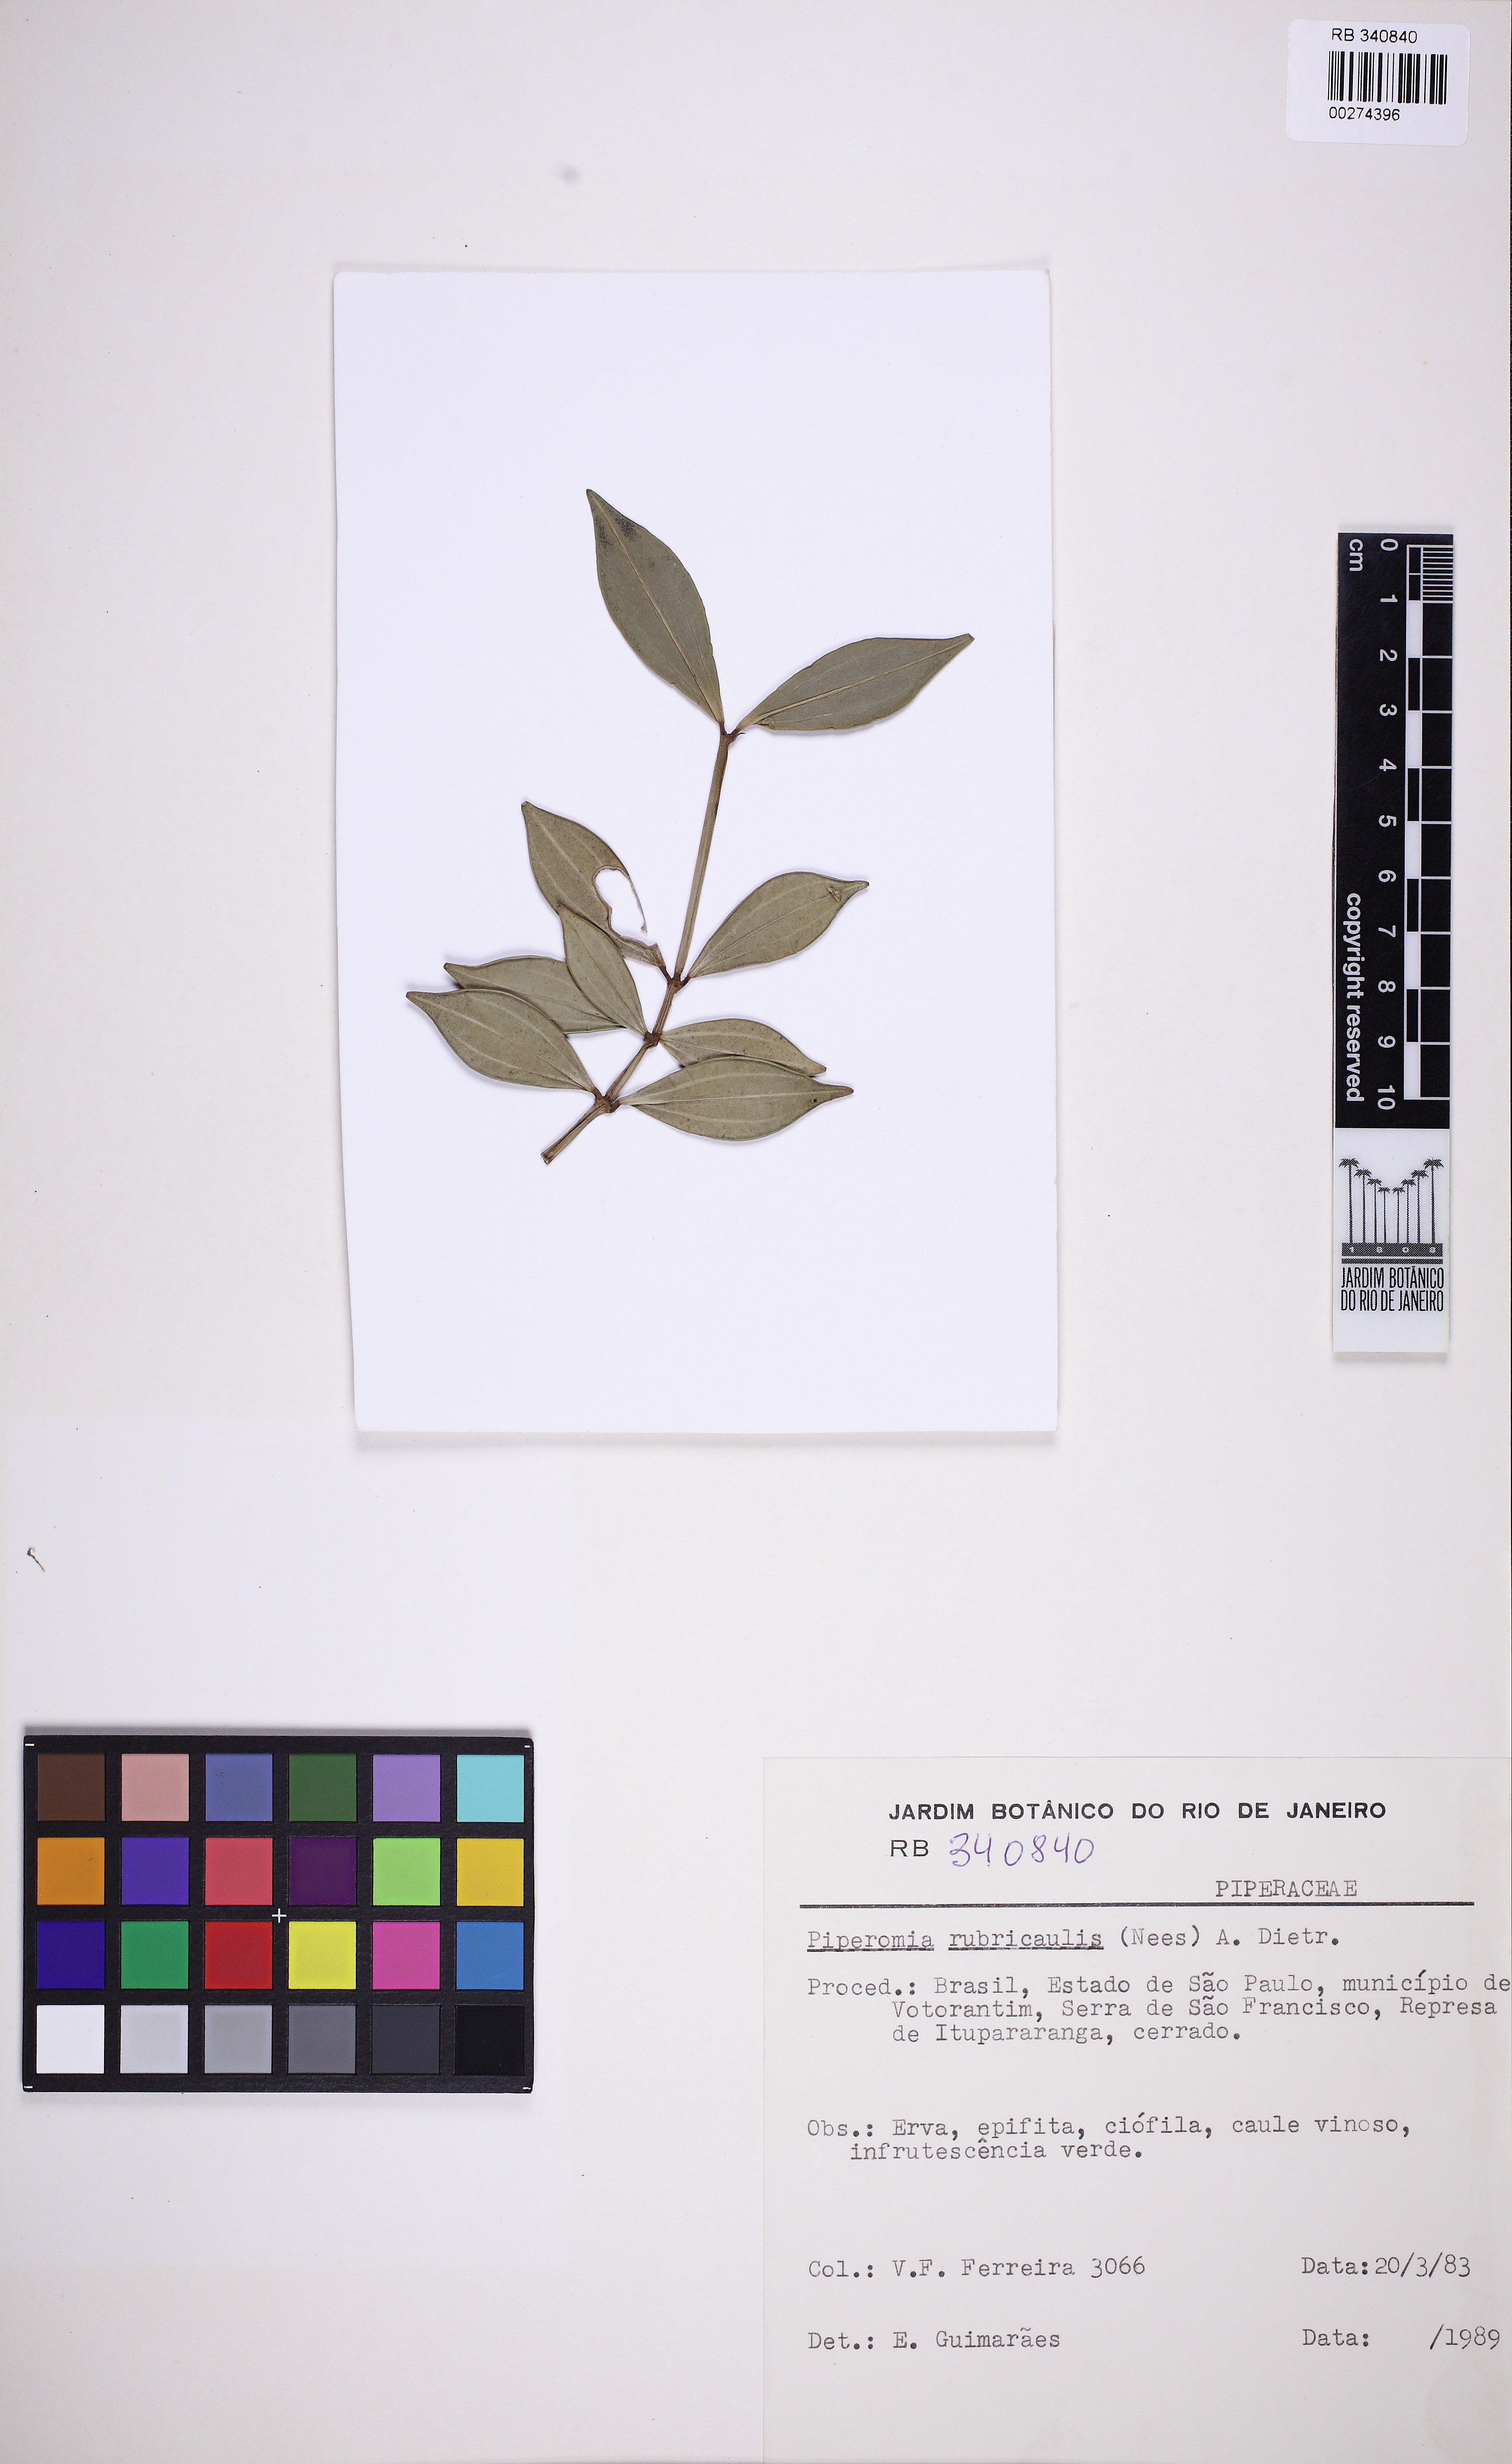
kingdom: Plantae
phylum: Tracheophyta
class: Magnoliopsida
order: Piperales
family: Piperaceae
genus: Peperomia
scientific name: Peperomia rubricaulis
